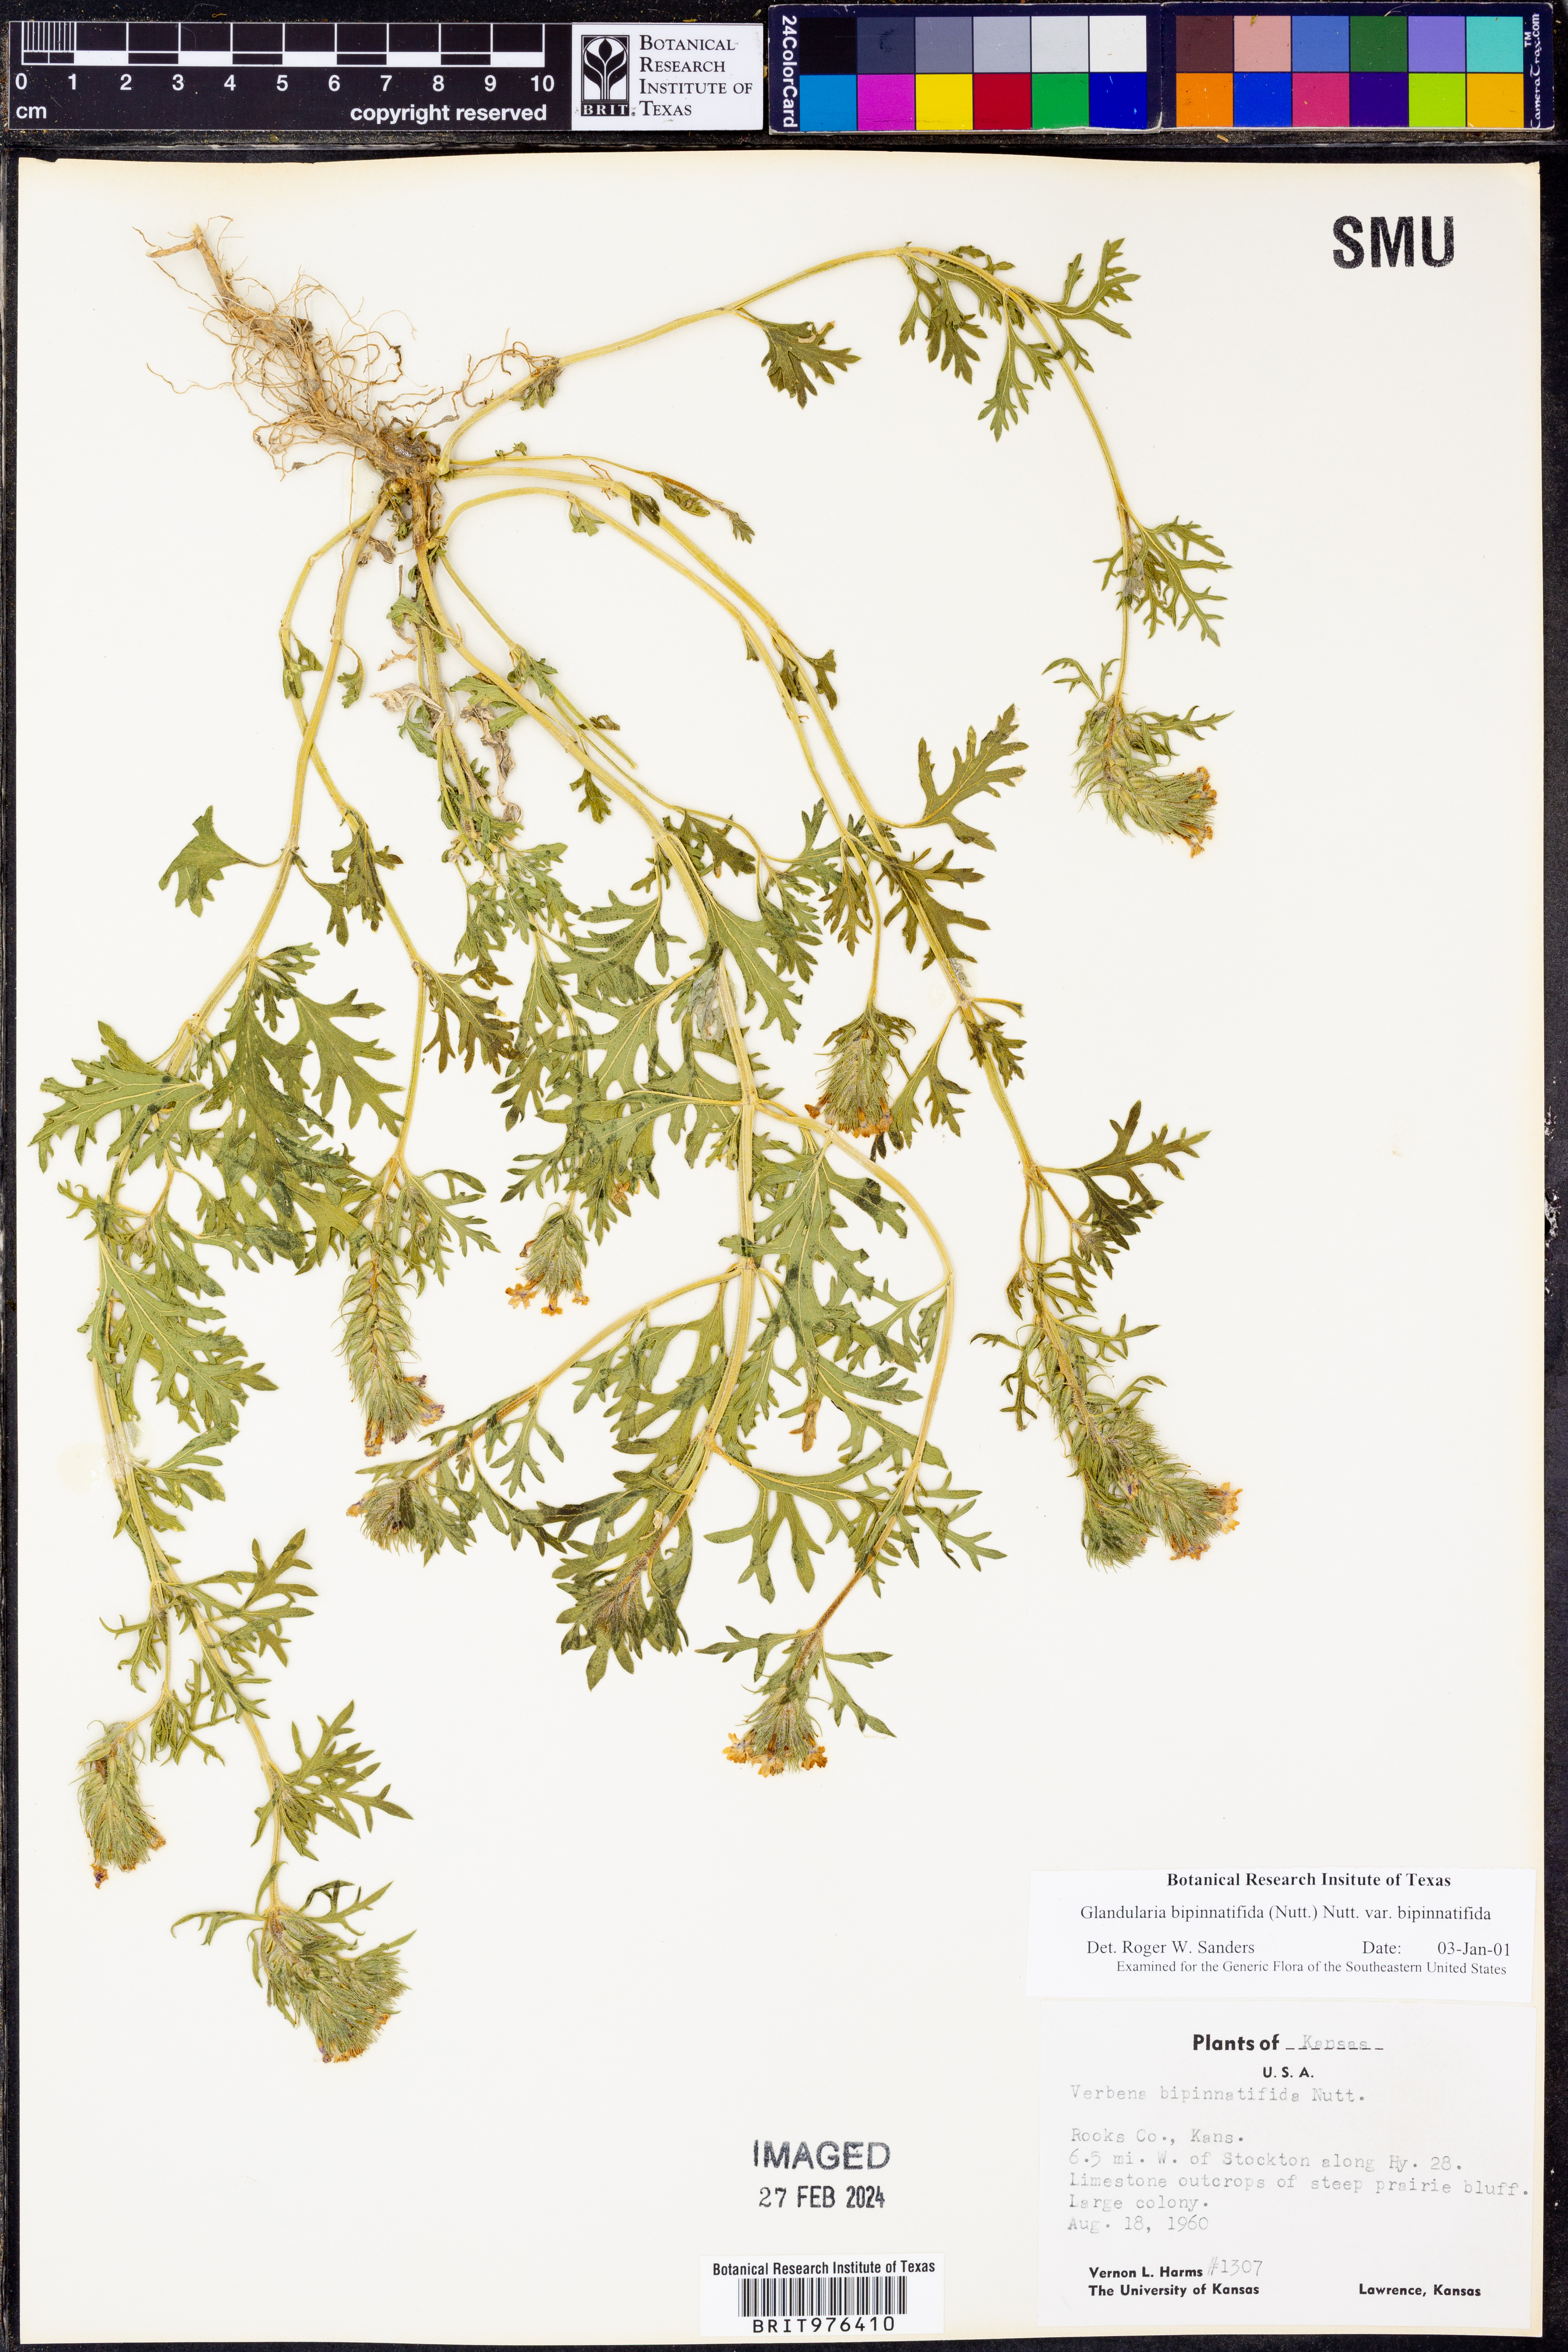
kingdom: Plantae
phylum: Tracheophyta
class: Magnoliopsida
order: Lamiales
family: Verbenaceae
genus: Verbena
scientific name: Verbena bipinnatifida
